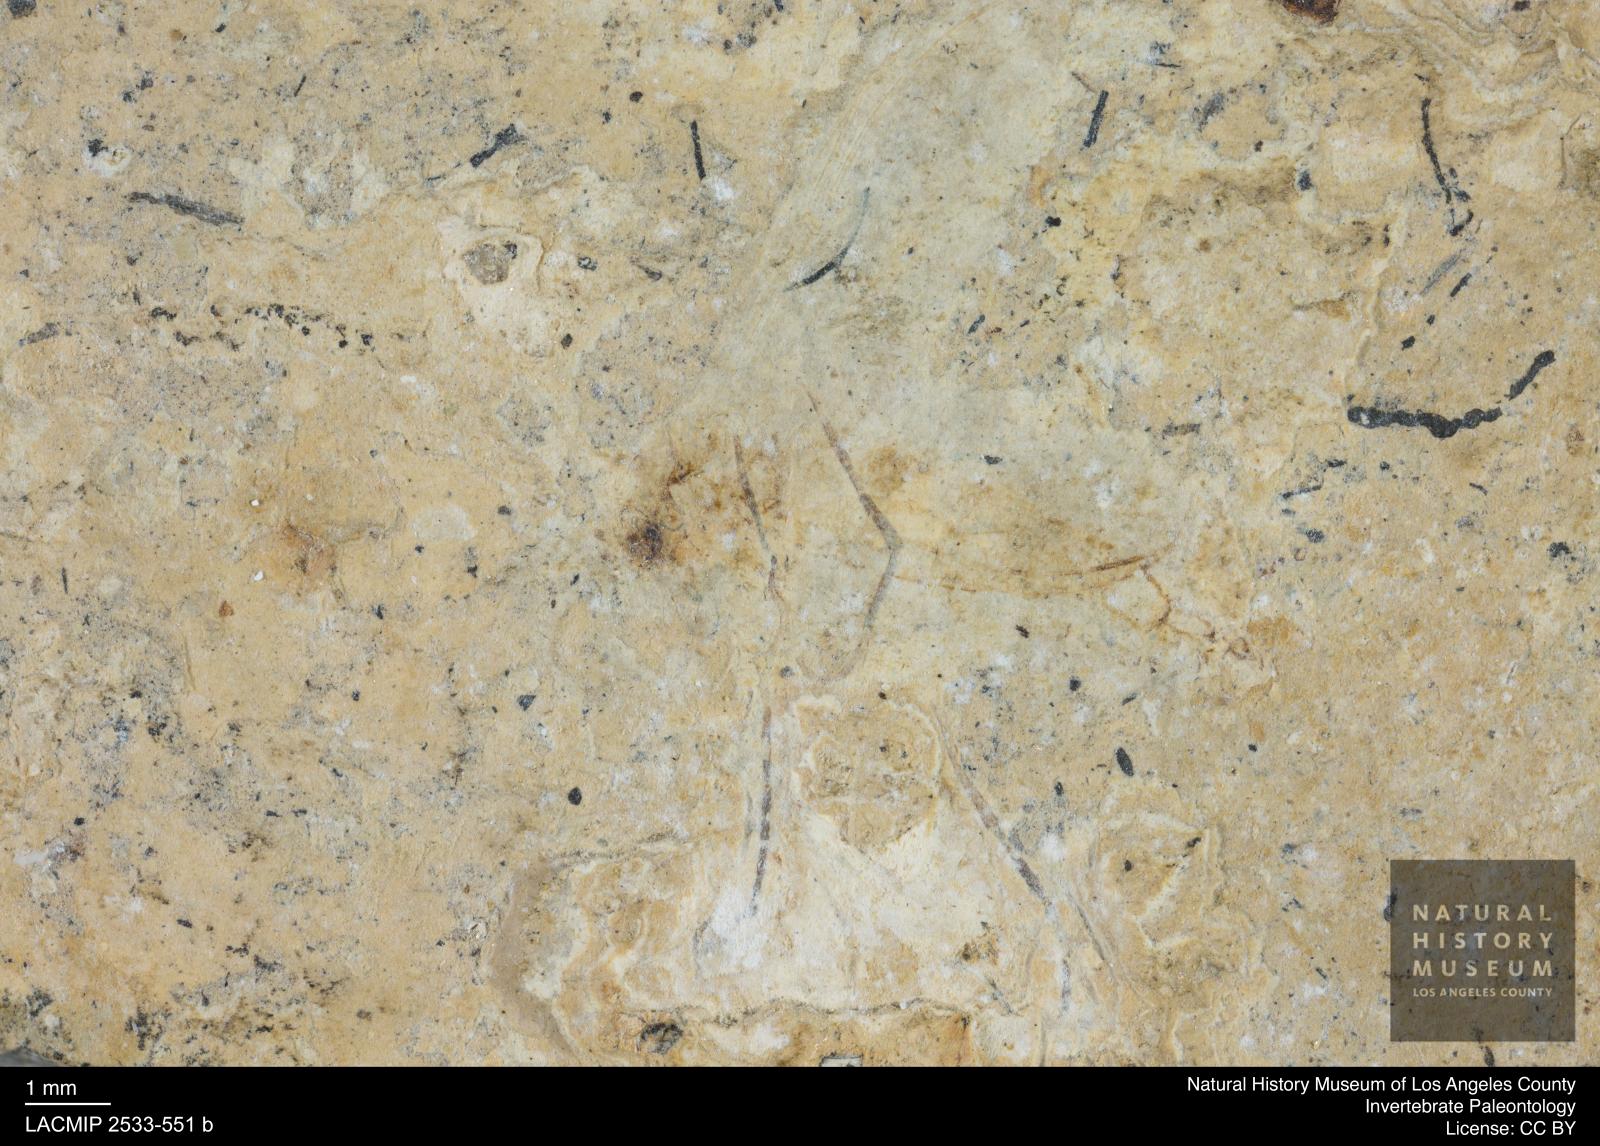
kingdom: Animalia
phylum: Arthropoda
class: Insecta
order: Diptera
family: Sciaridae
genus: Sciara
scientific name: Sciara aulica
